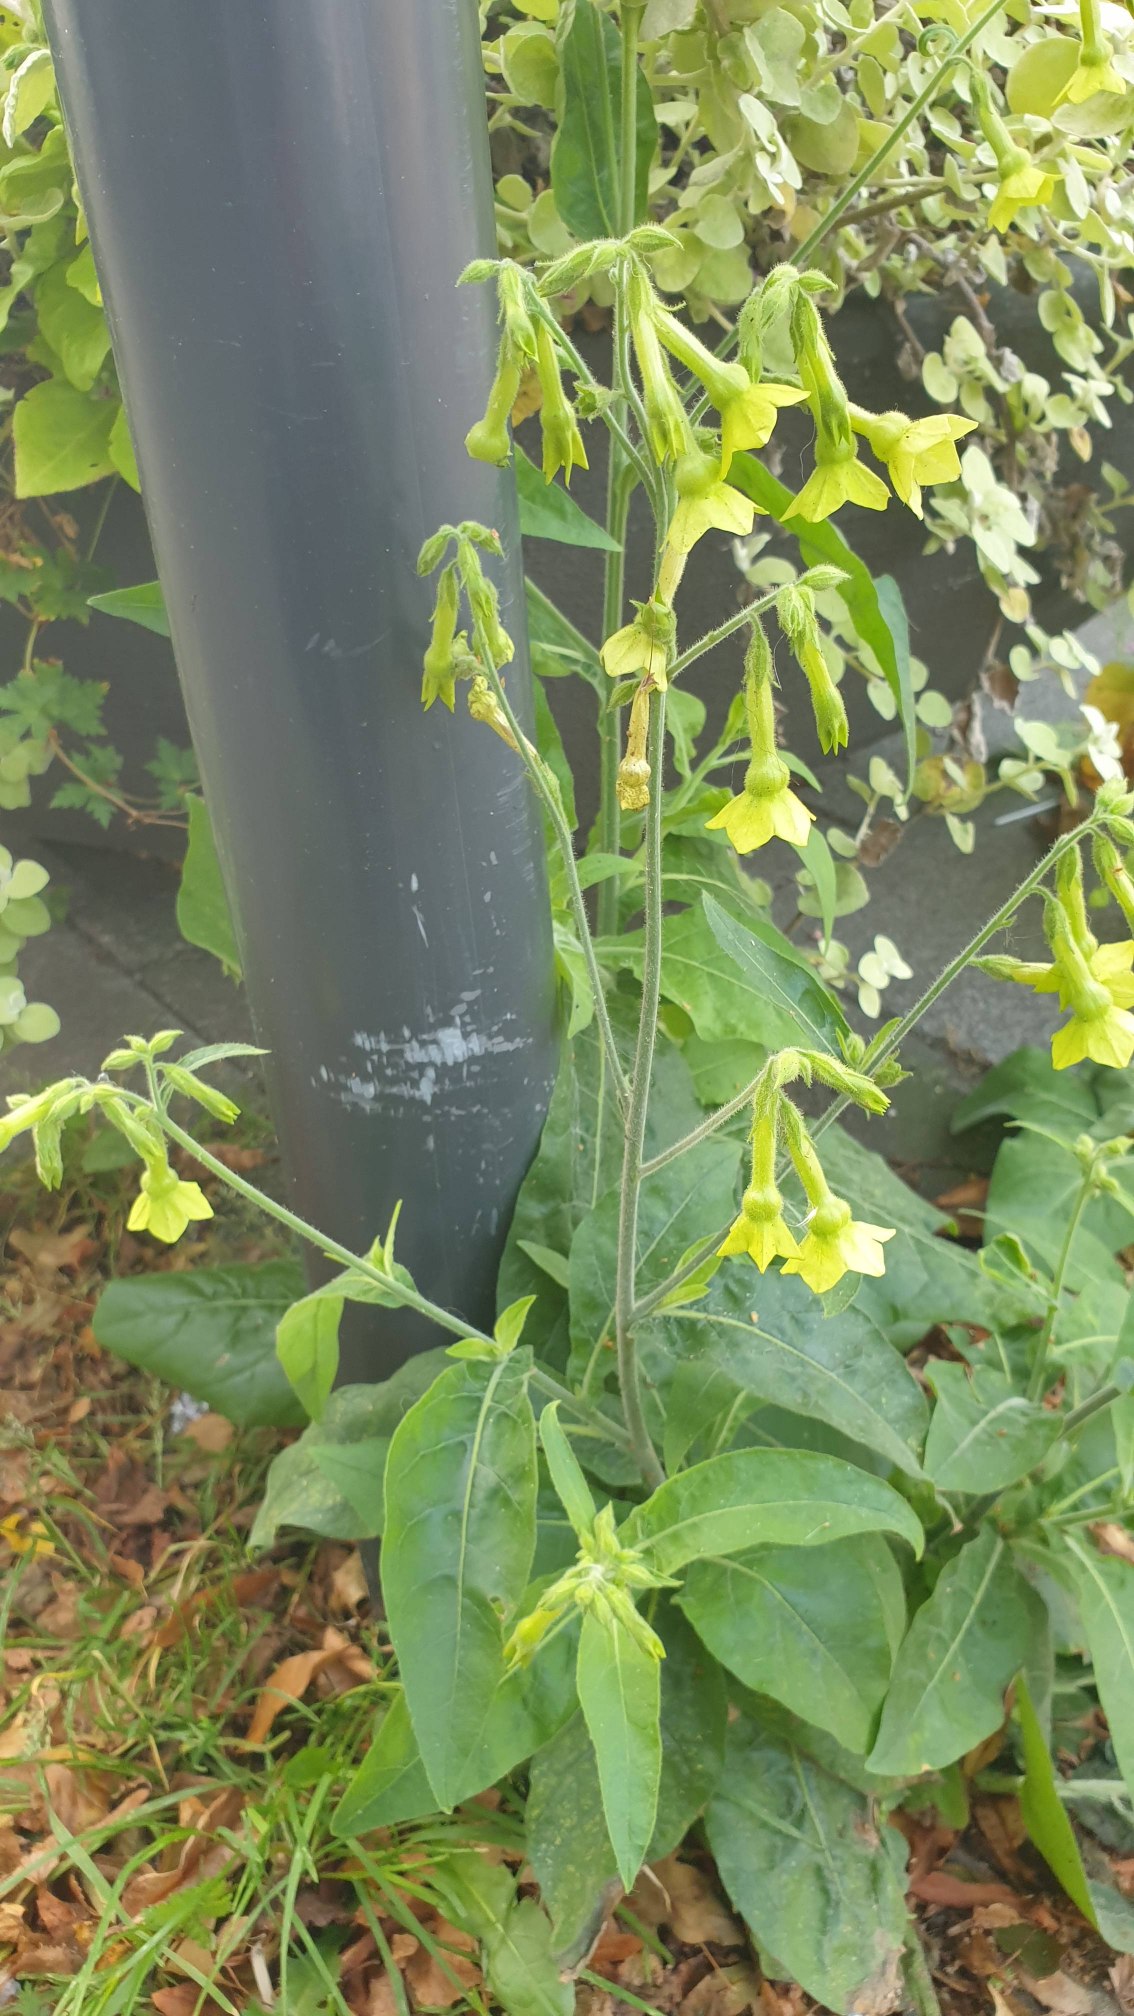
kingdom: Plantae
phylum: Tracheophyta
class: Magnoliopsida
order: Solanales
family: Solanaceae
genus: Nicotiana
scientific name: Nicotiana langsdorffii
